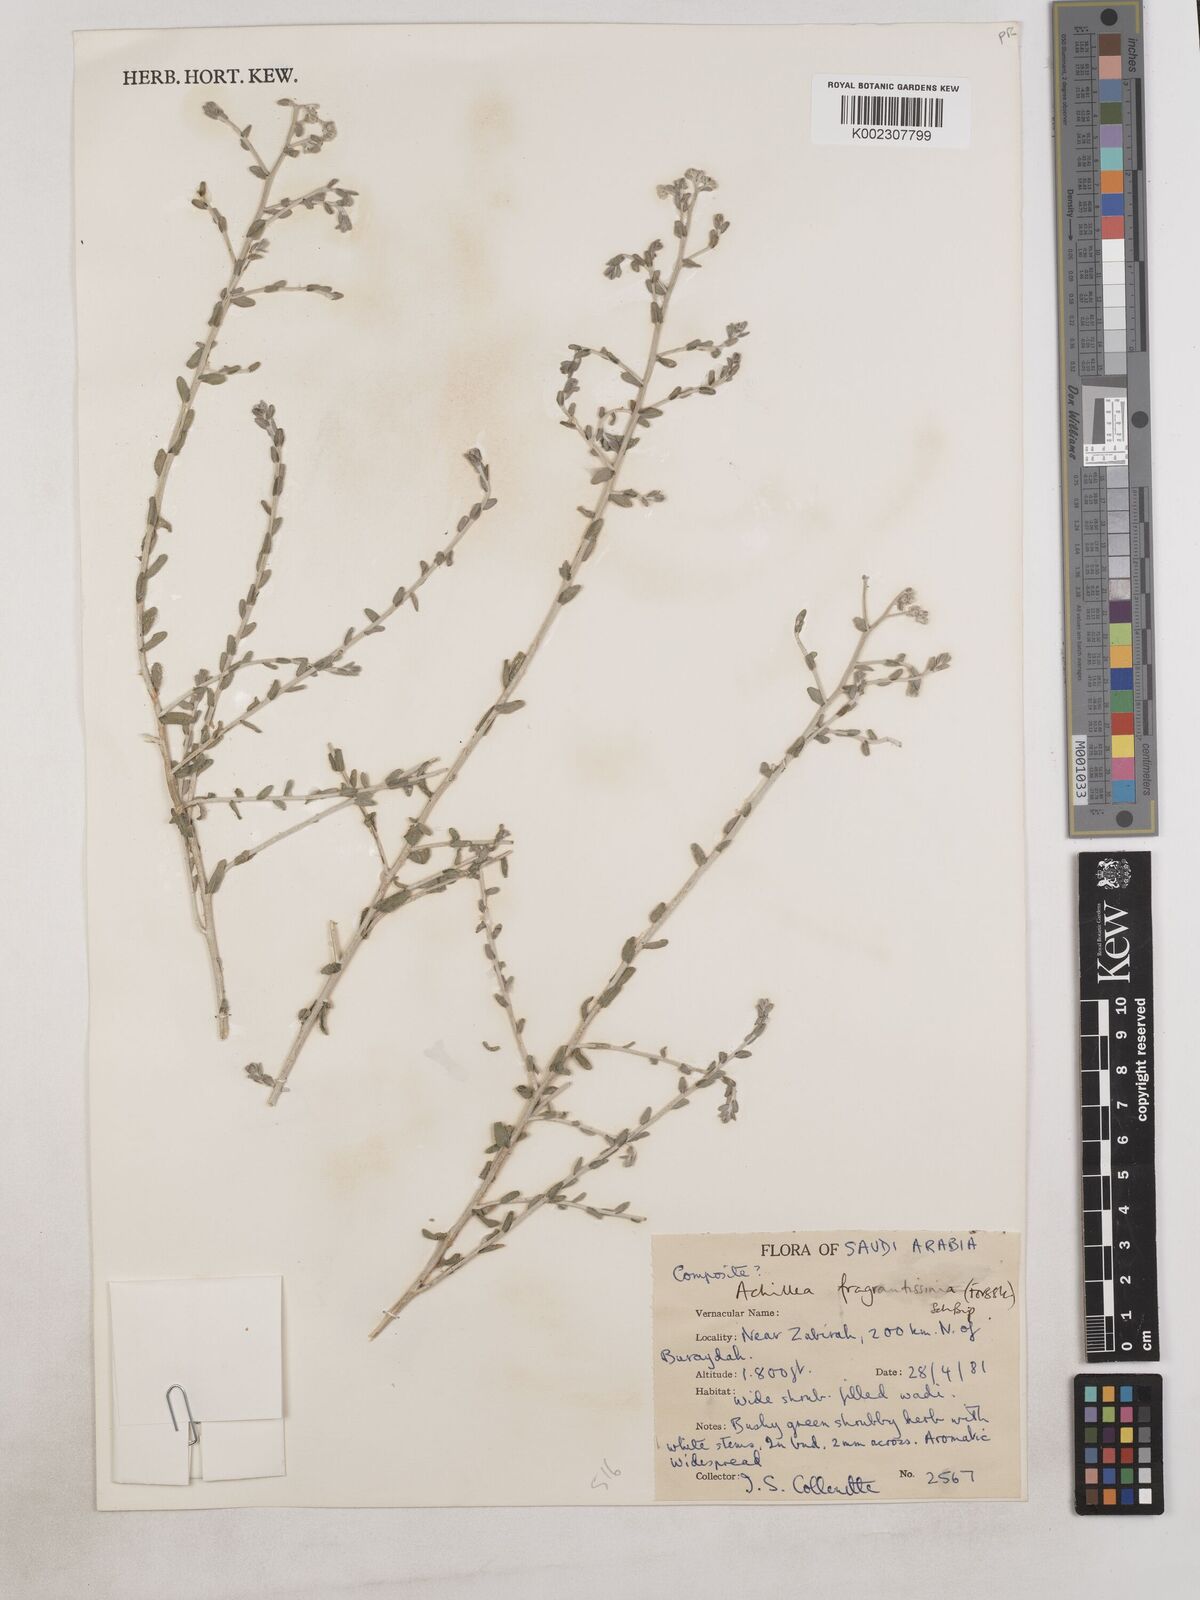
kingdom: Plantae
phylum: Tracheophyta
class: Magnoliopsida
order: Asterales
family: Asteraceae
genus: Achillea
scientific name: Achillea fragrantissima
